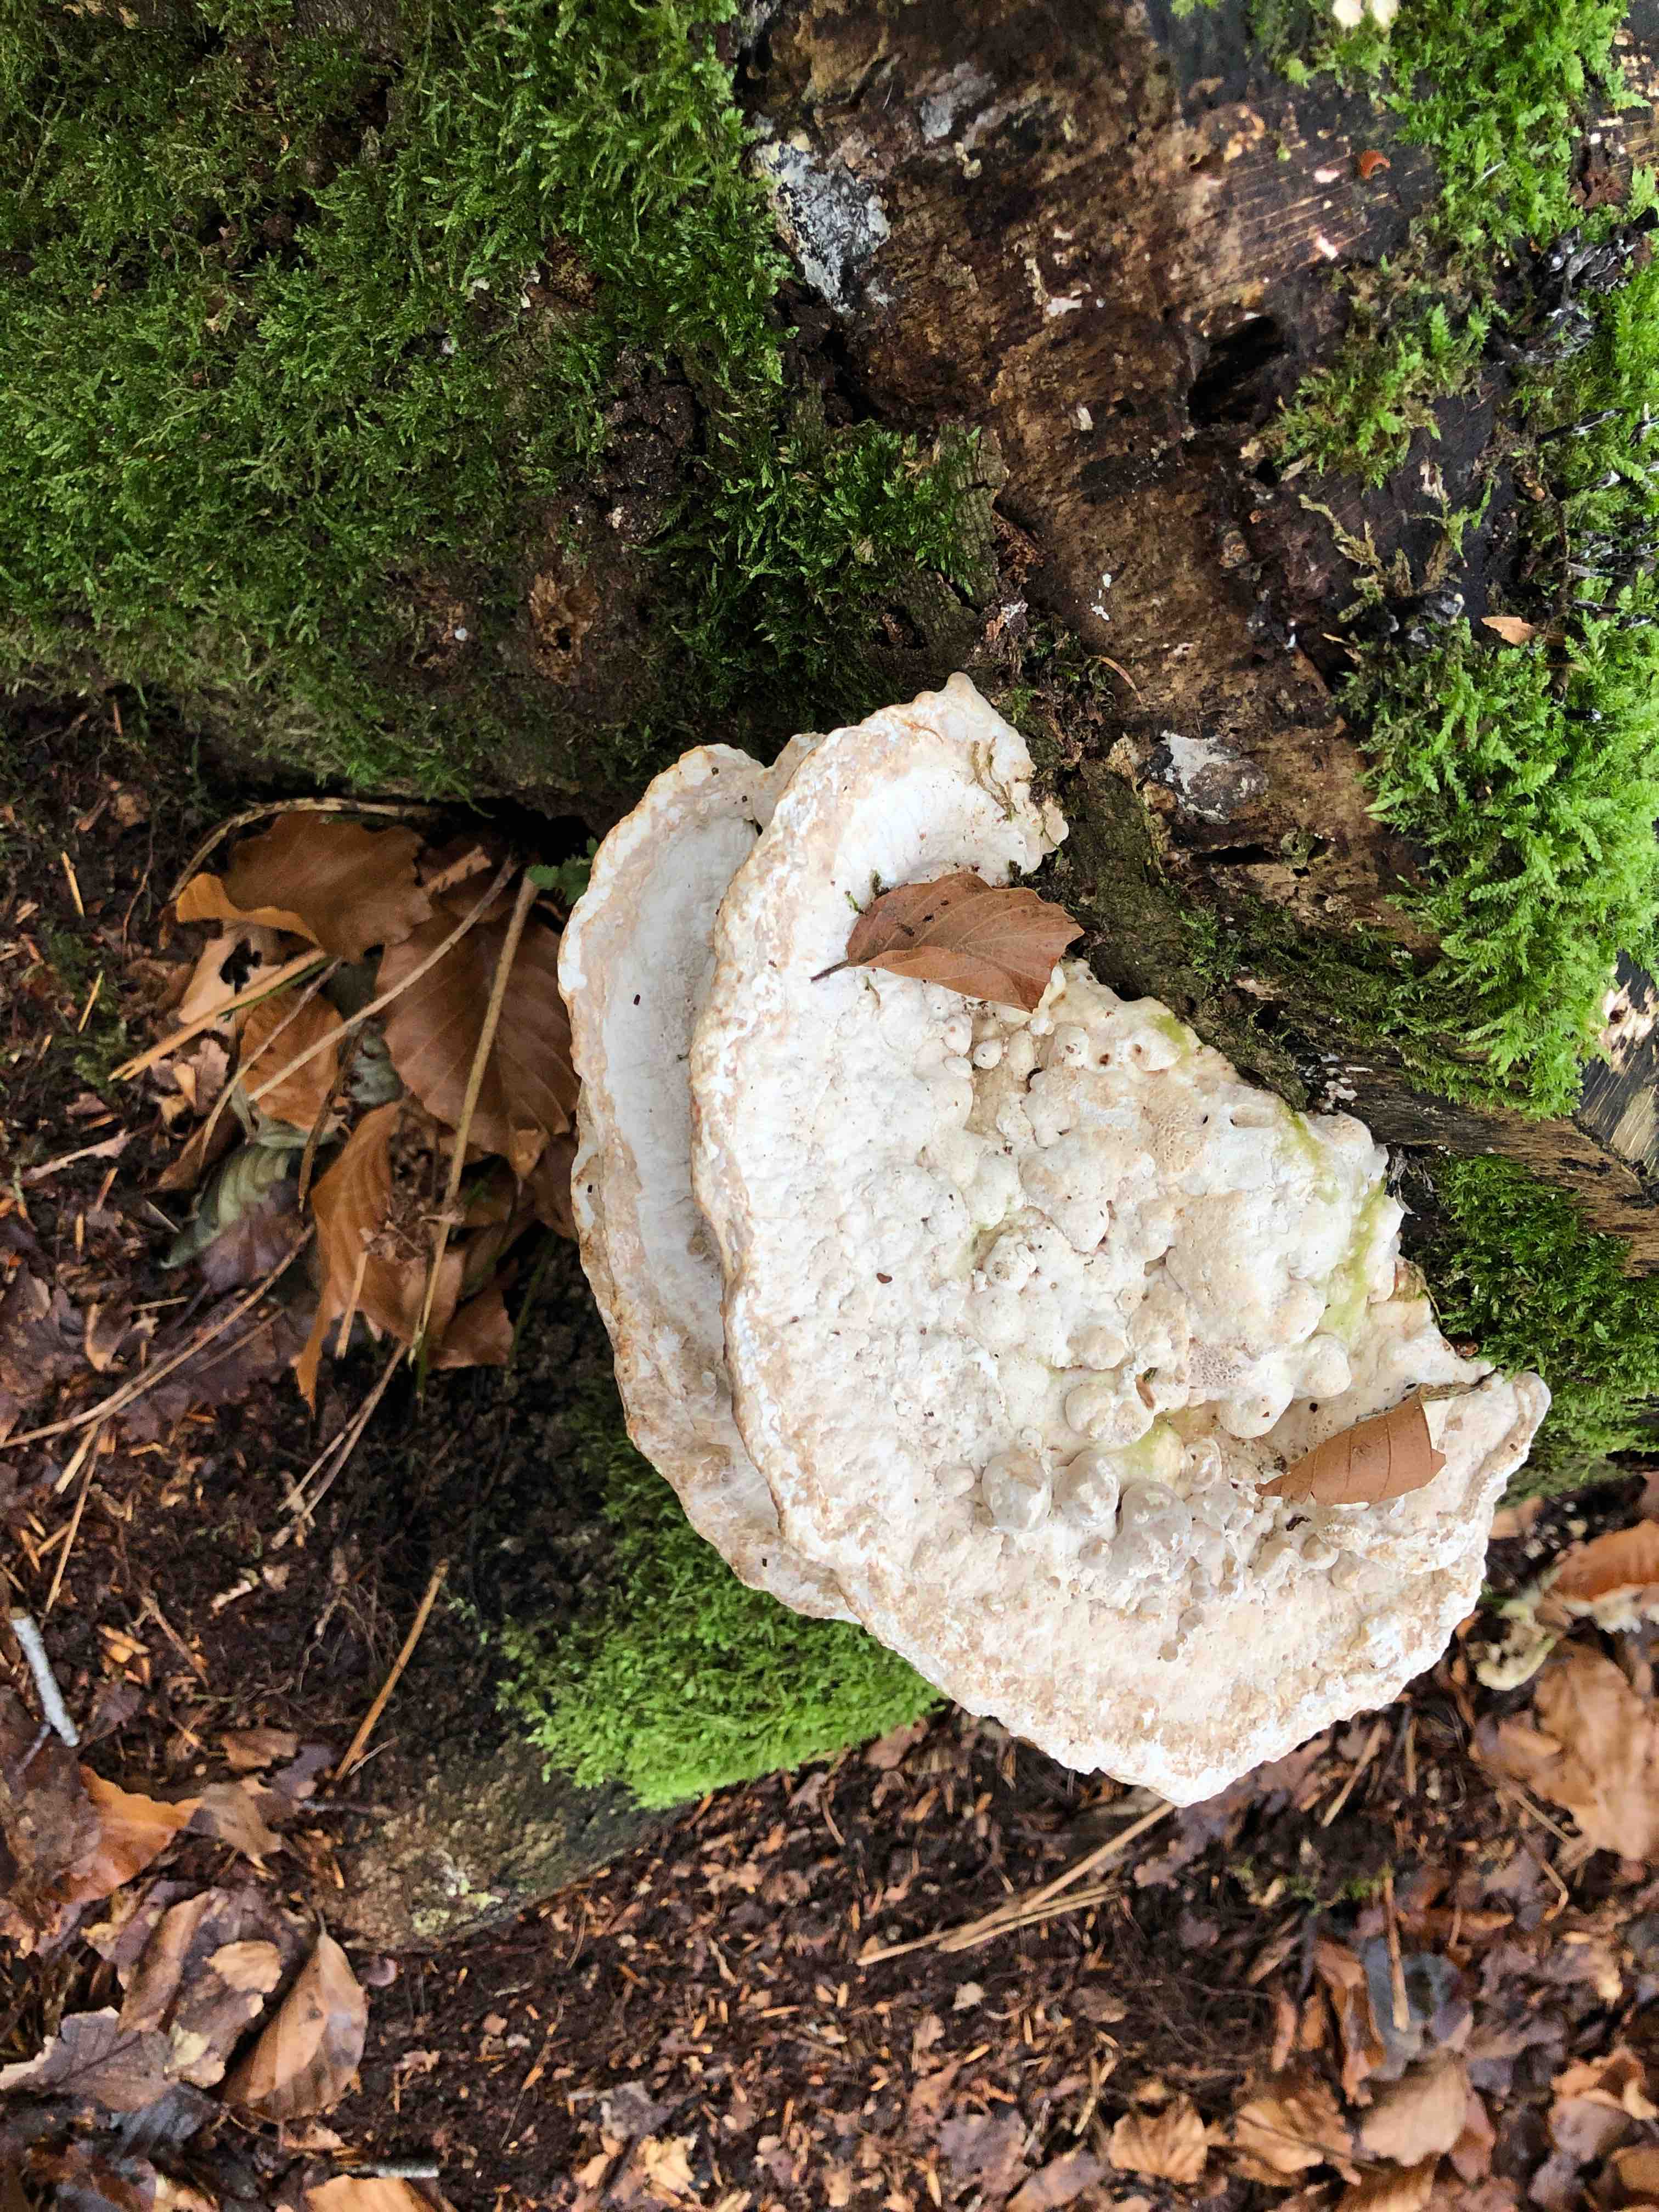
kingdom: Fungi
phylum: Basidiomycota
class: Agaricomycetes
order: Polyporales
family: Polyporaceae
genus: Trametes
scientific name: Trametes gibbosa
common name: puklet læderporesvamp
